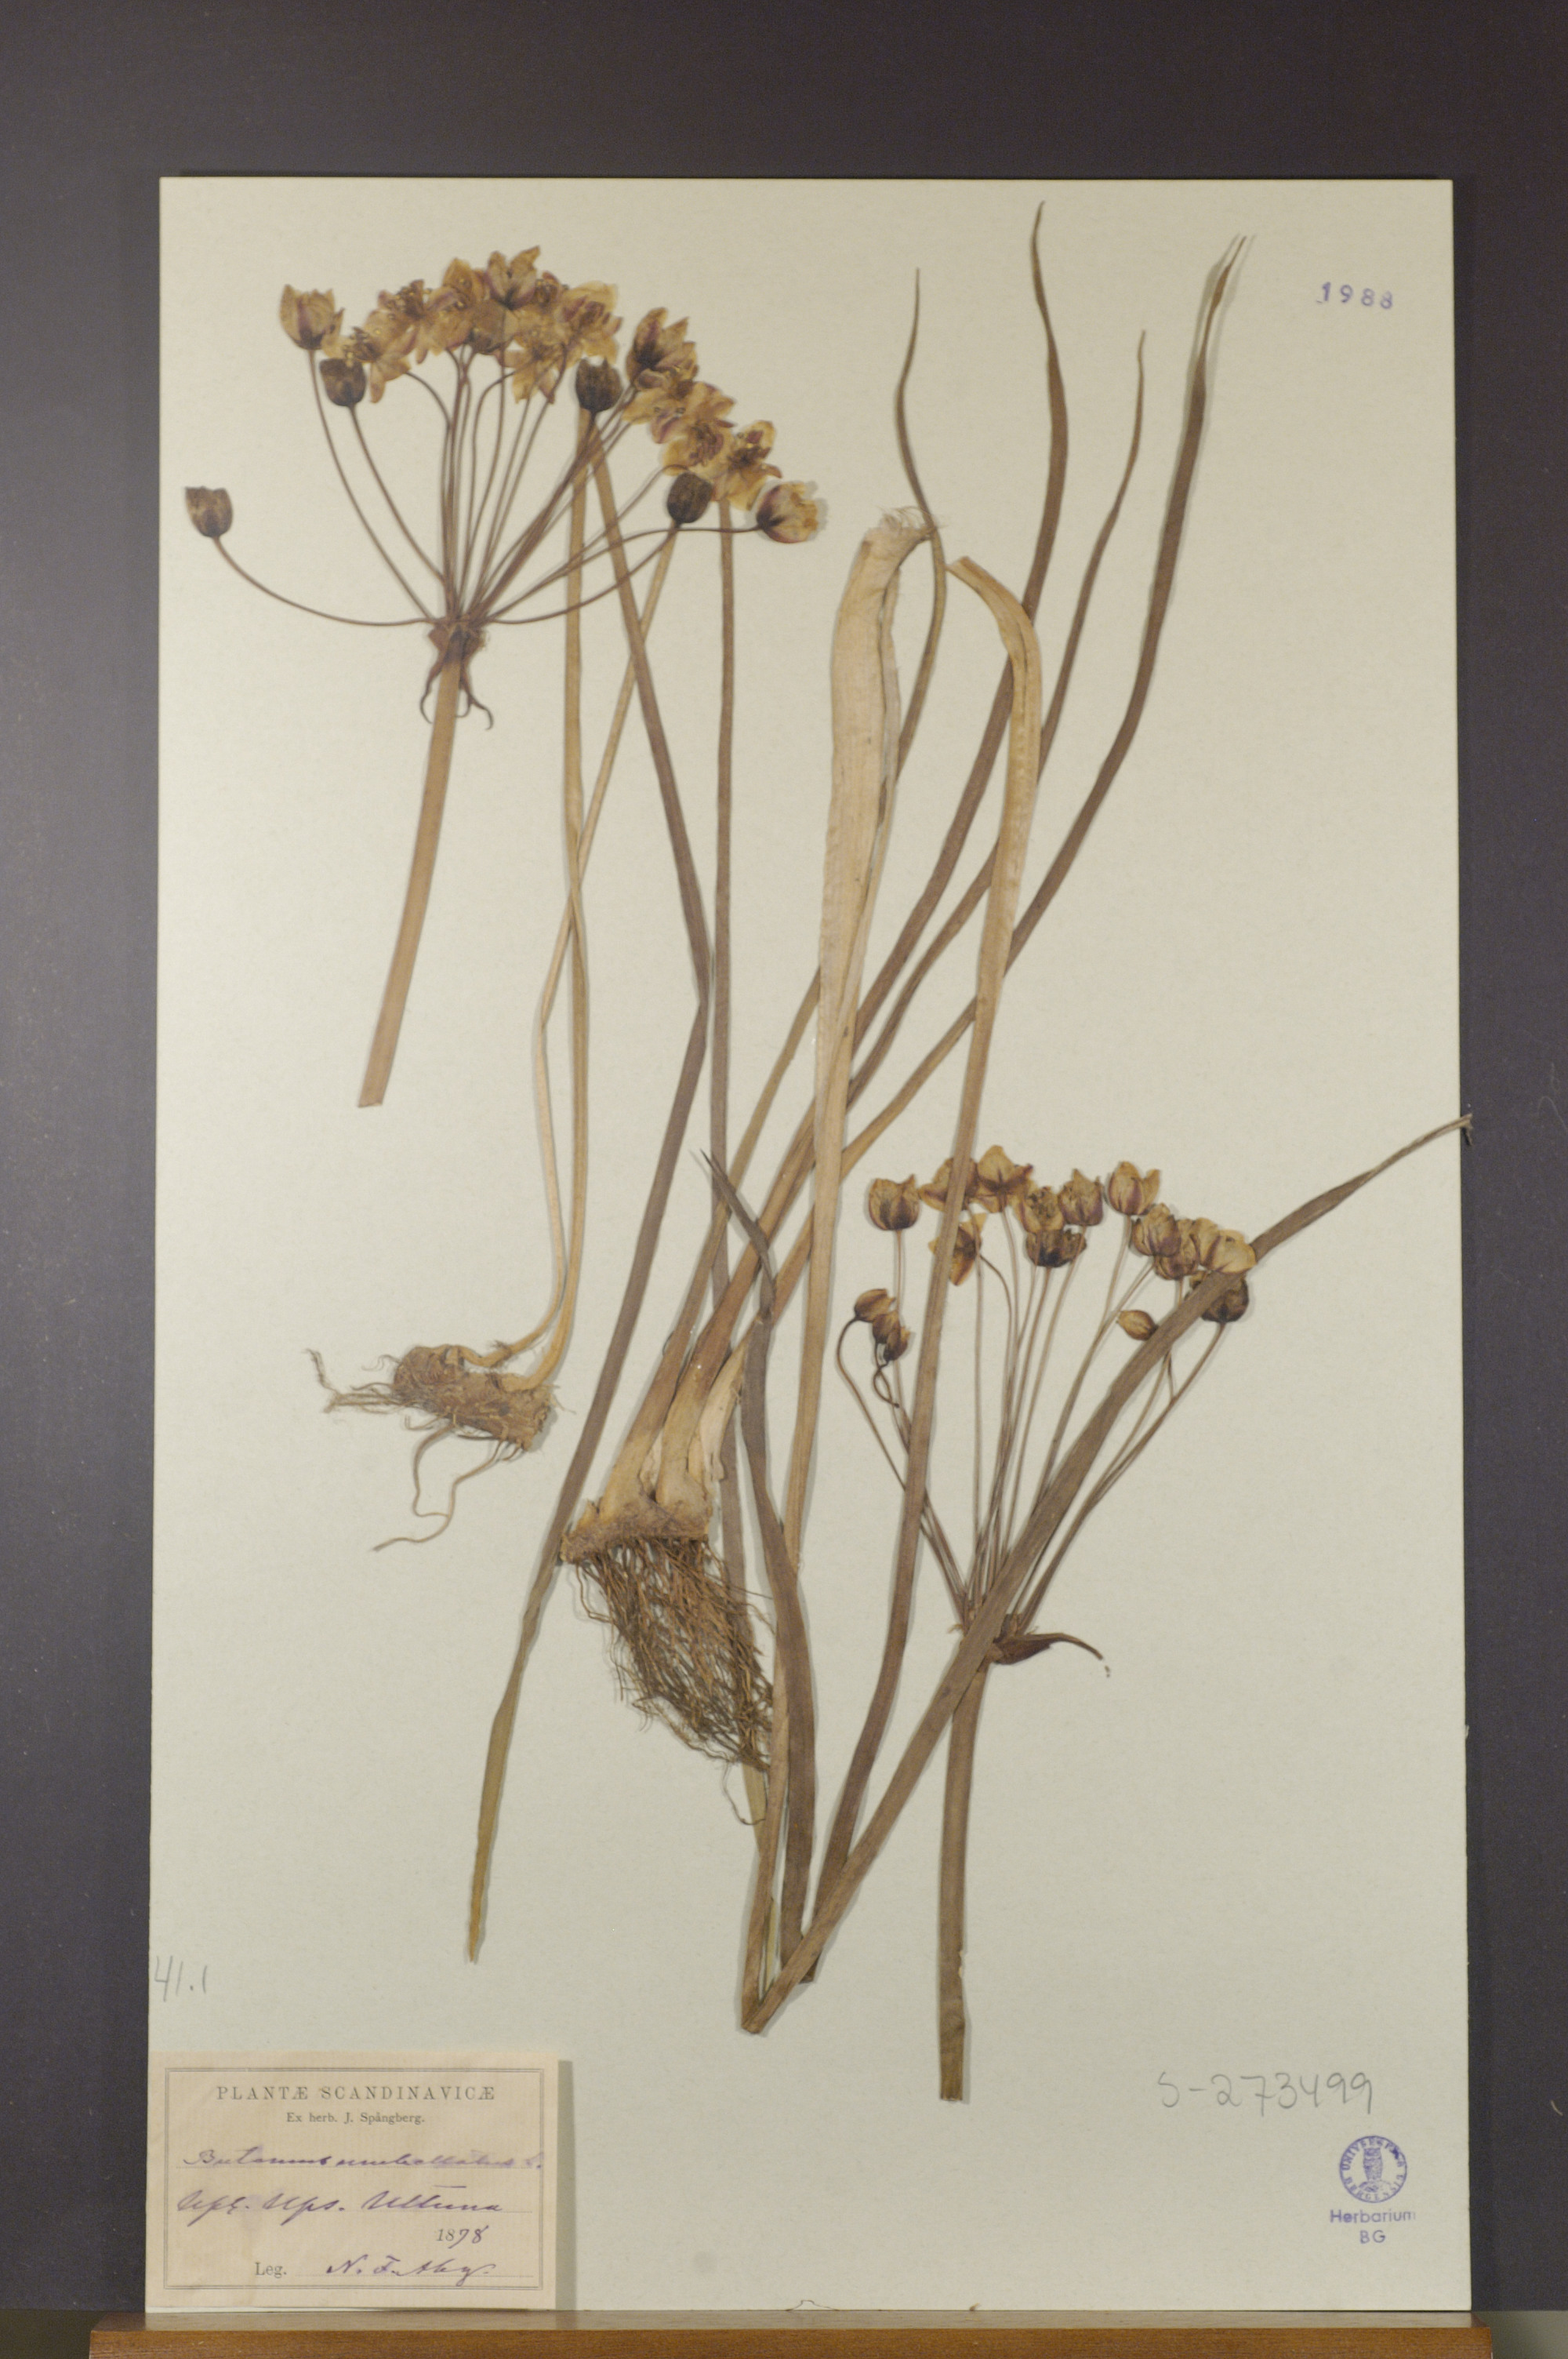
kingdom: Plantae
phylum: Tracheophyta
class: Liliopsida
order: Alismatales
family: Butomaceae
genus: Butomus
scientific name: Butomus umbellatus
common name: Flowering-rush
